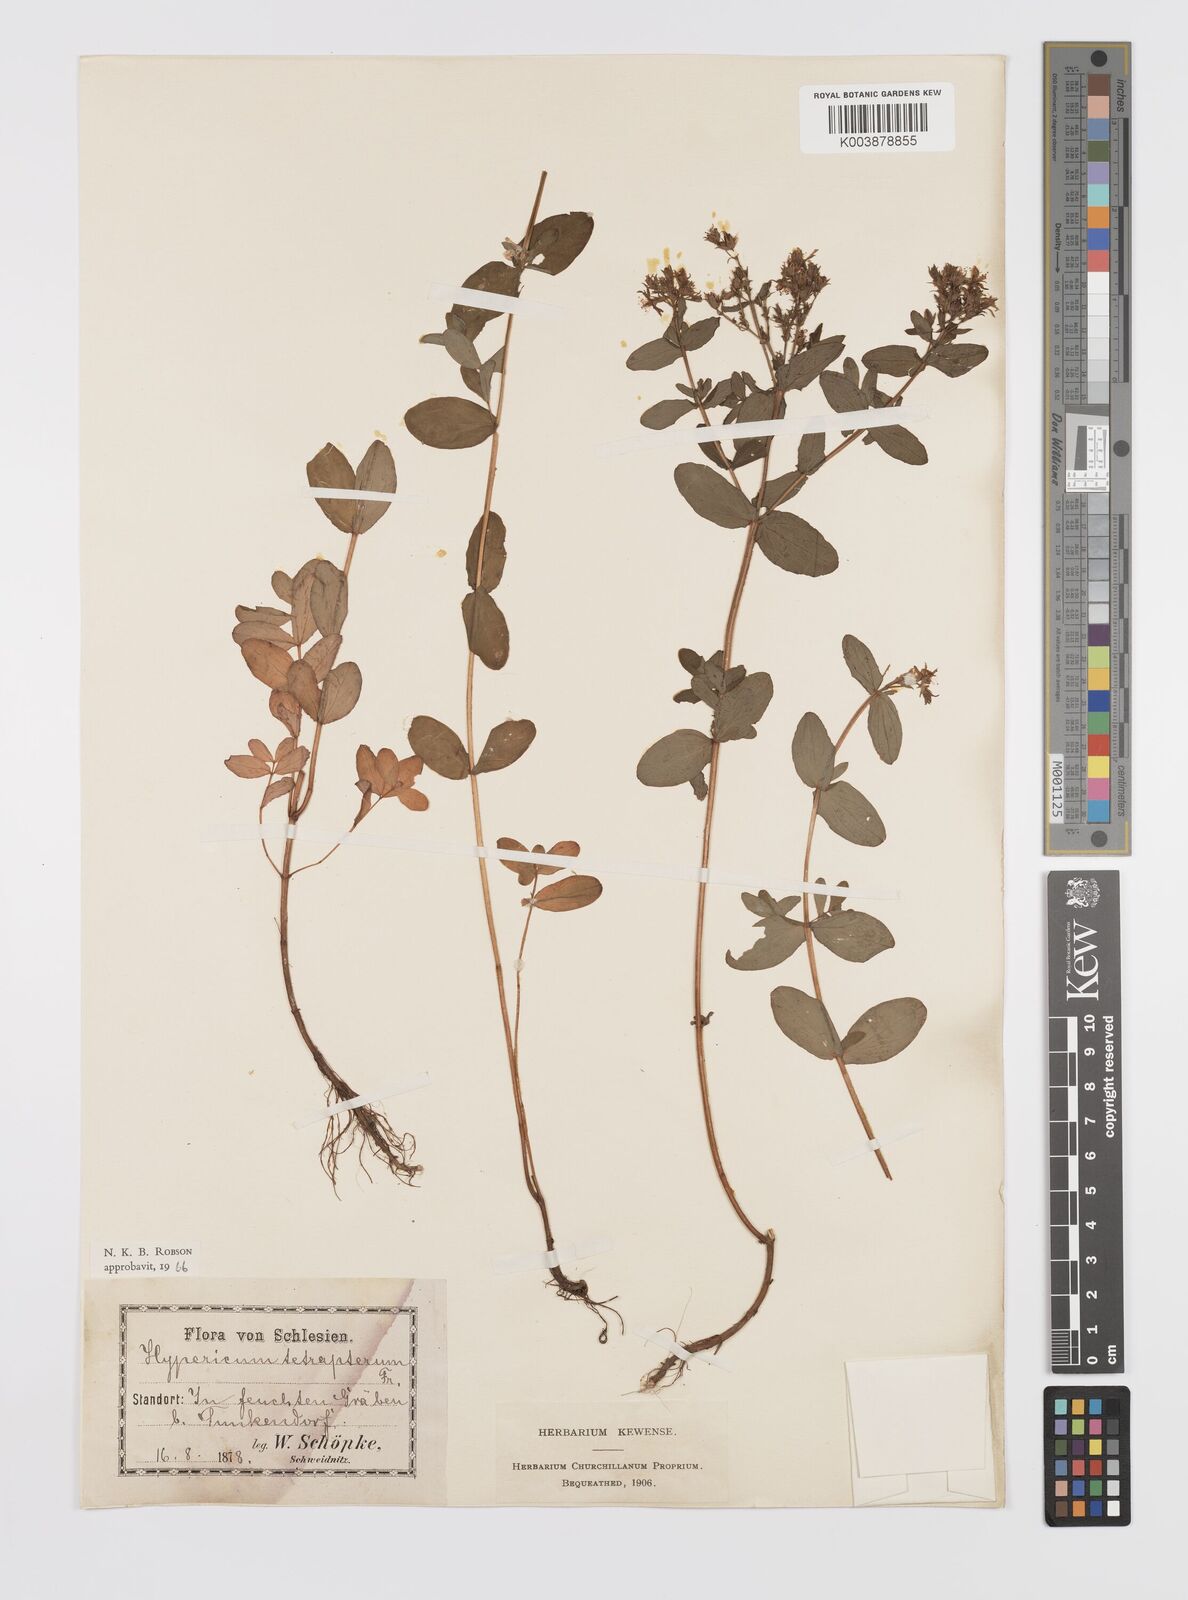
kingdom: Plantae
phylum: Tracheophyta
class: Magnoliopsida
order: Malpighiales
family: Hypericaceae
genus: Hypericum
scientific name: Hypericum tetrapterum
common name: Square-stalked st. john's-wort
